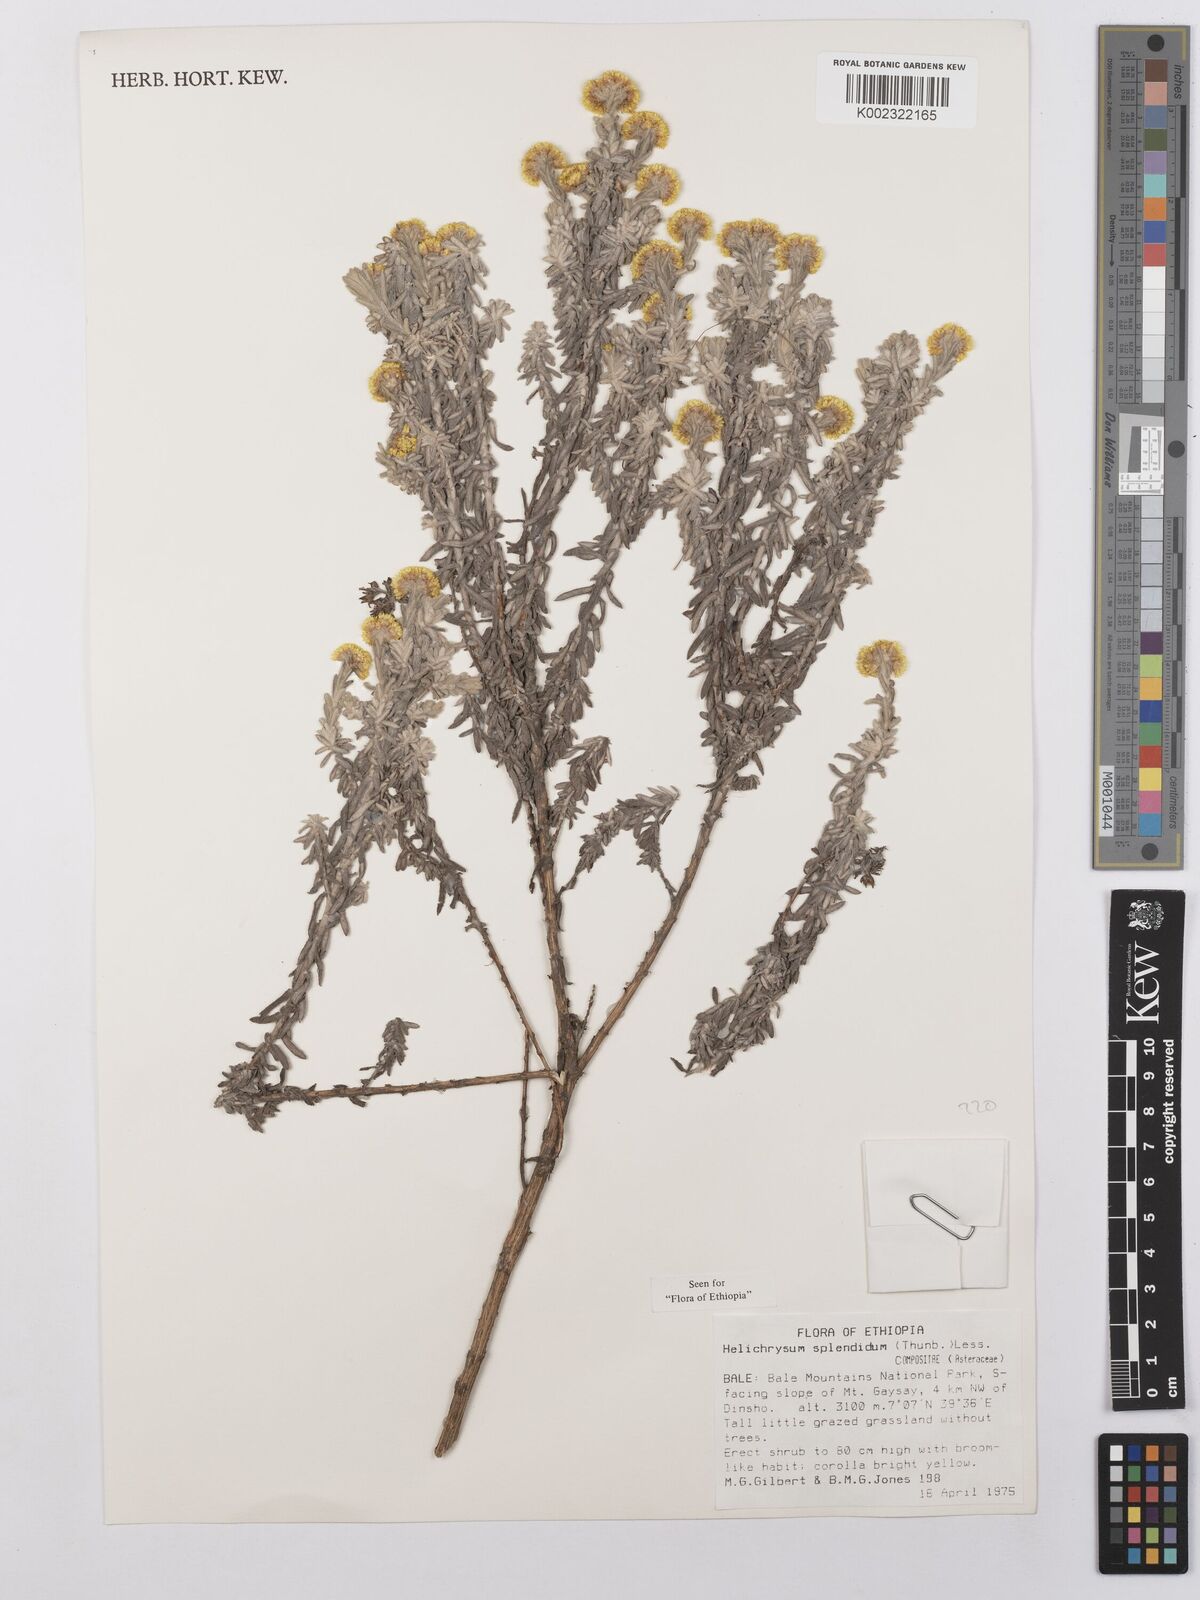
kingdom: Plantae
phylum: Tracheophyta
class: Magnoliopsida
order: Asterales
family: Asteraceae
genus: Helichrysum
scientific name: Helichrysum splendidum
